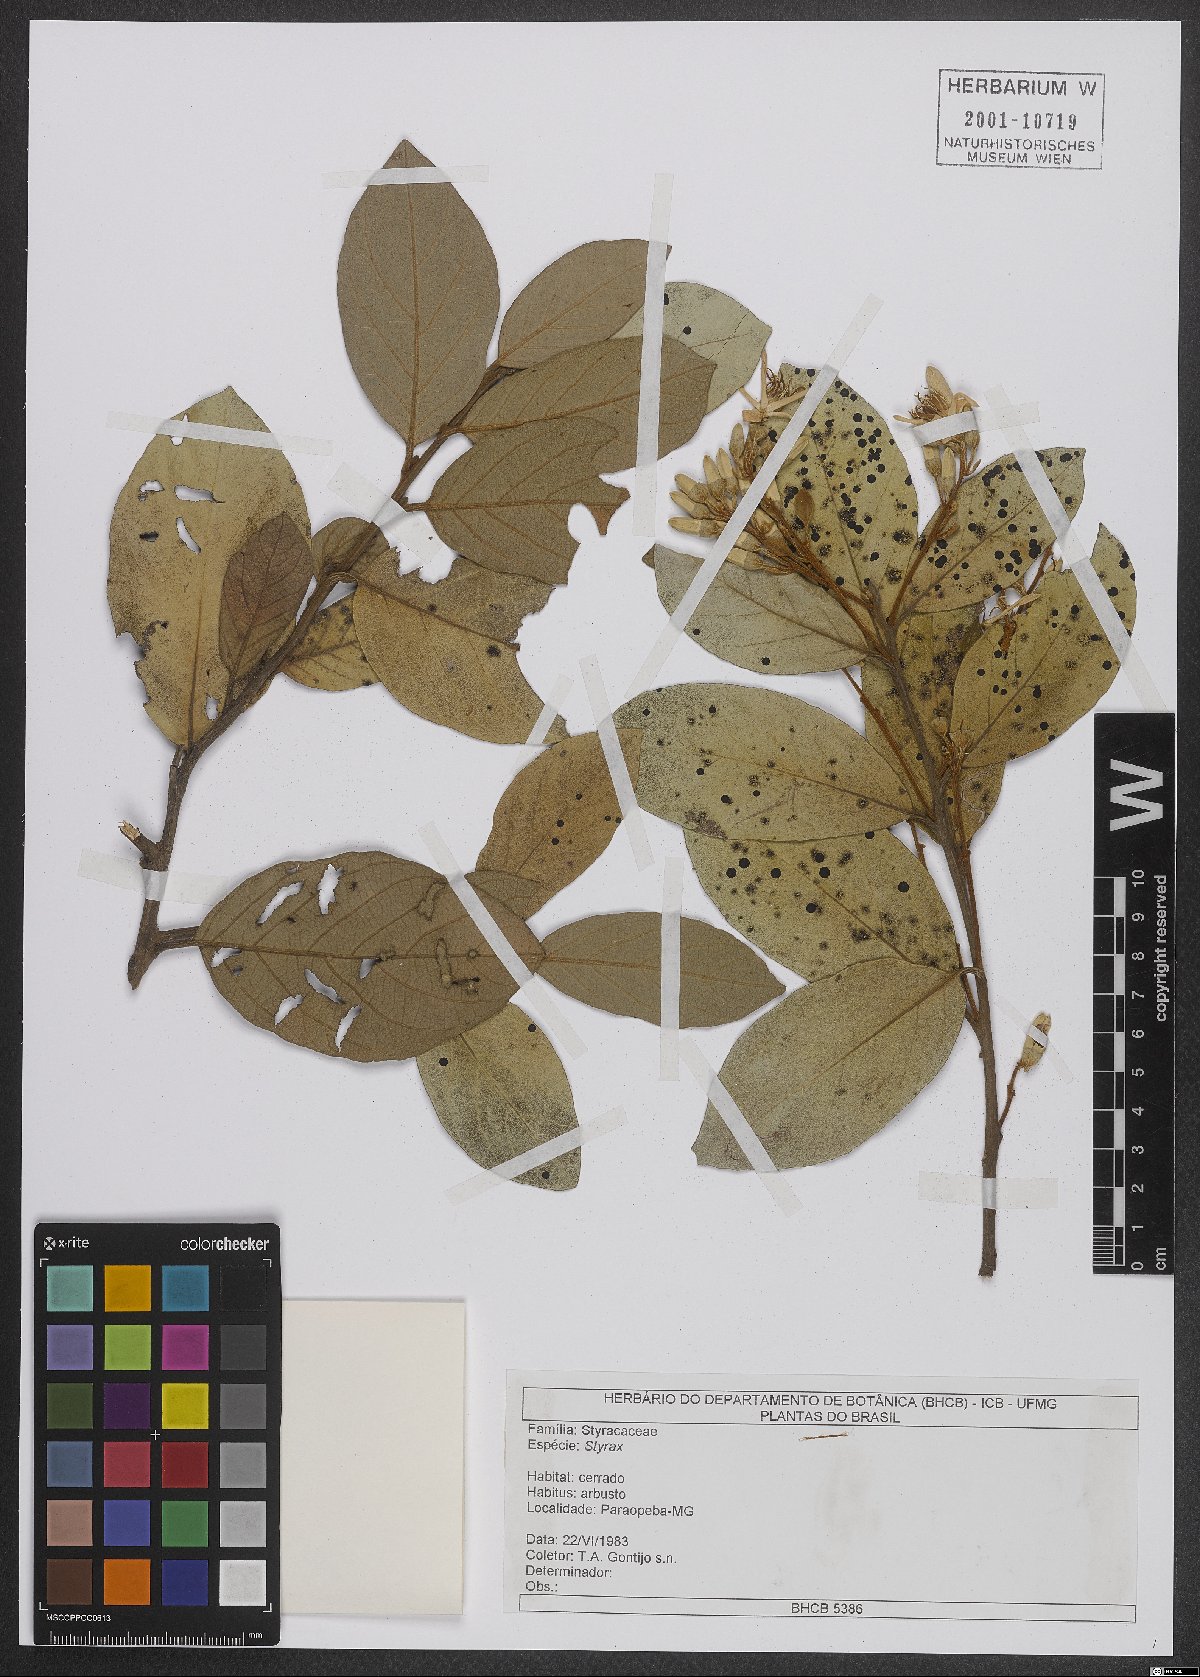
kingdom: Plantae
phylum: Tracheophyta
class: Magnoliopsida
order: Ericales
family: Styracaceae
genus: Styrax
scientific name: Styrax
